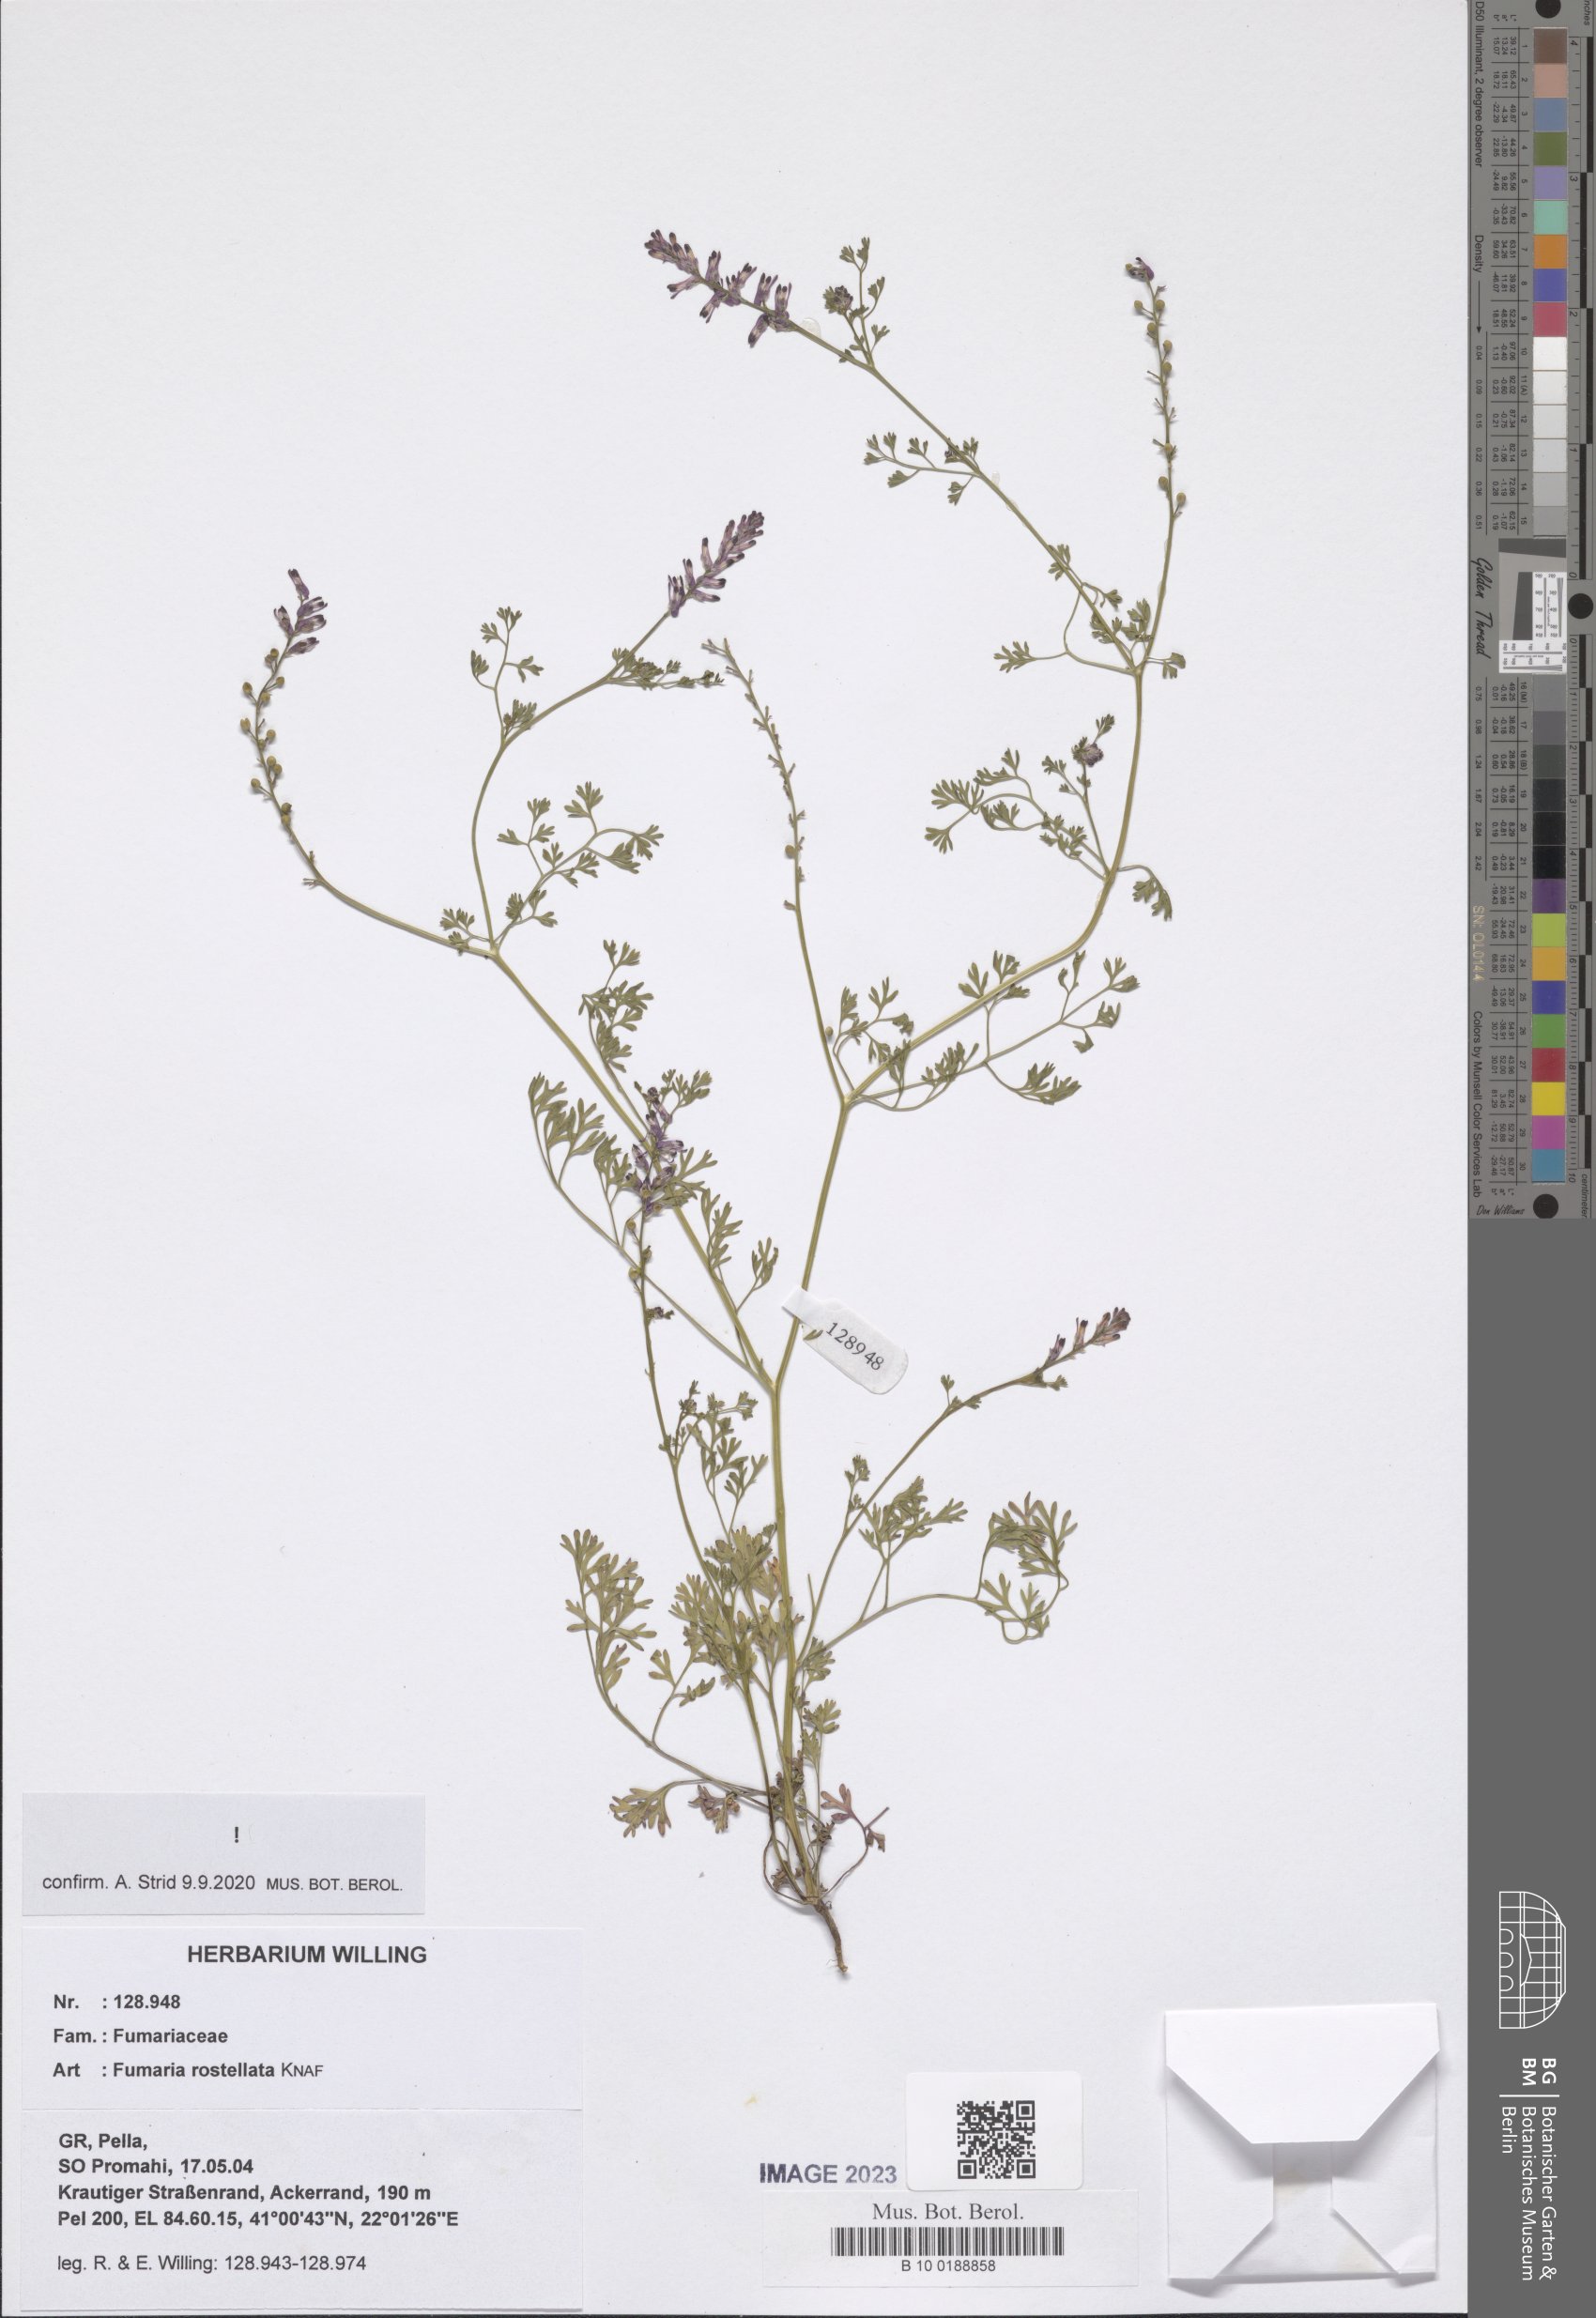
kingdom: Plantae
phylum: Tracheophyta
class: Magnoliopsida
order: Ranunculales
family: Papaveraceae
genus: Fumaria
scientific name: Fumaria rostellata
